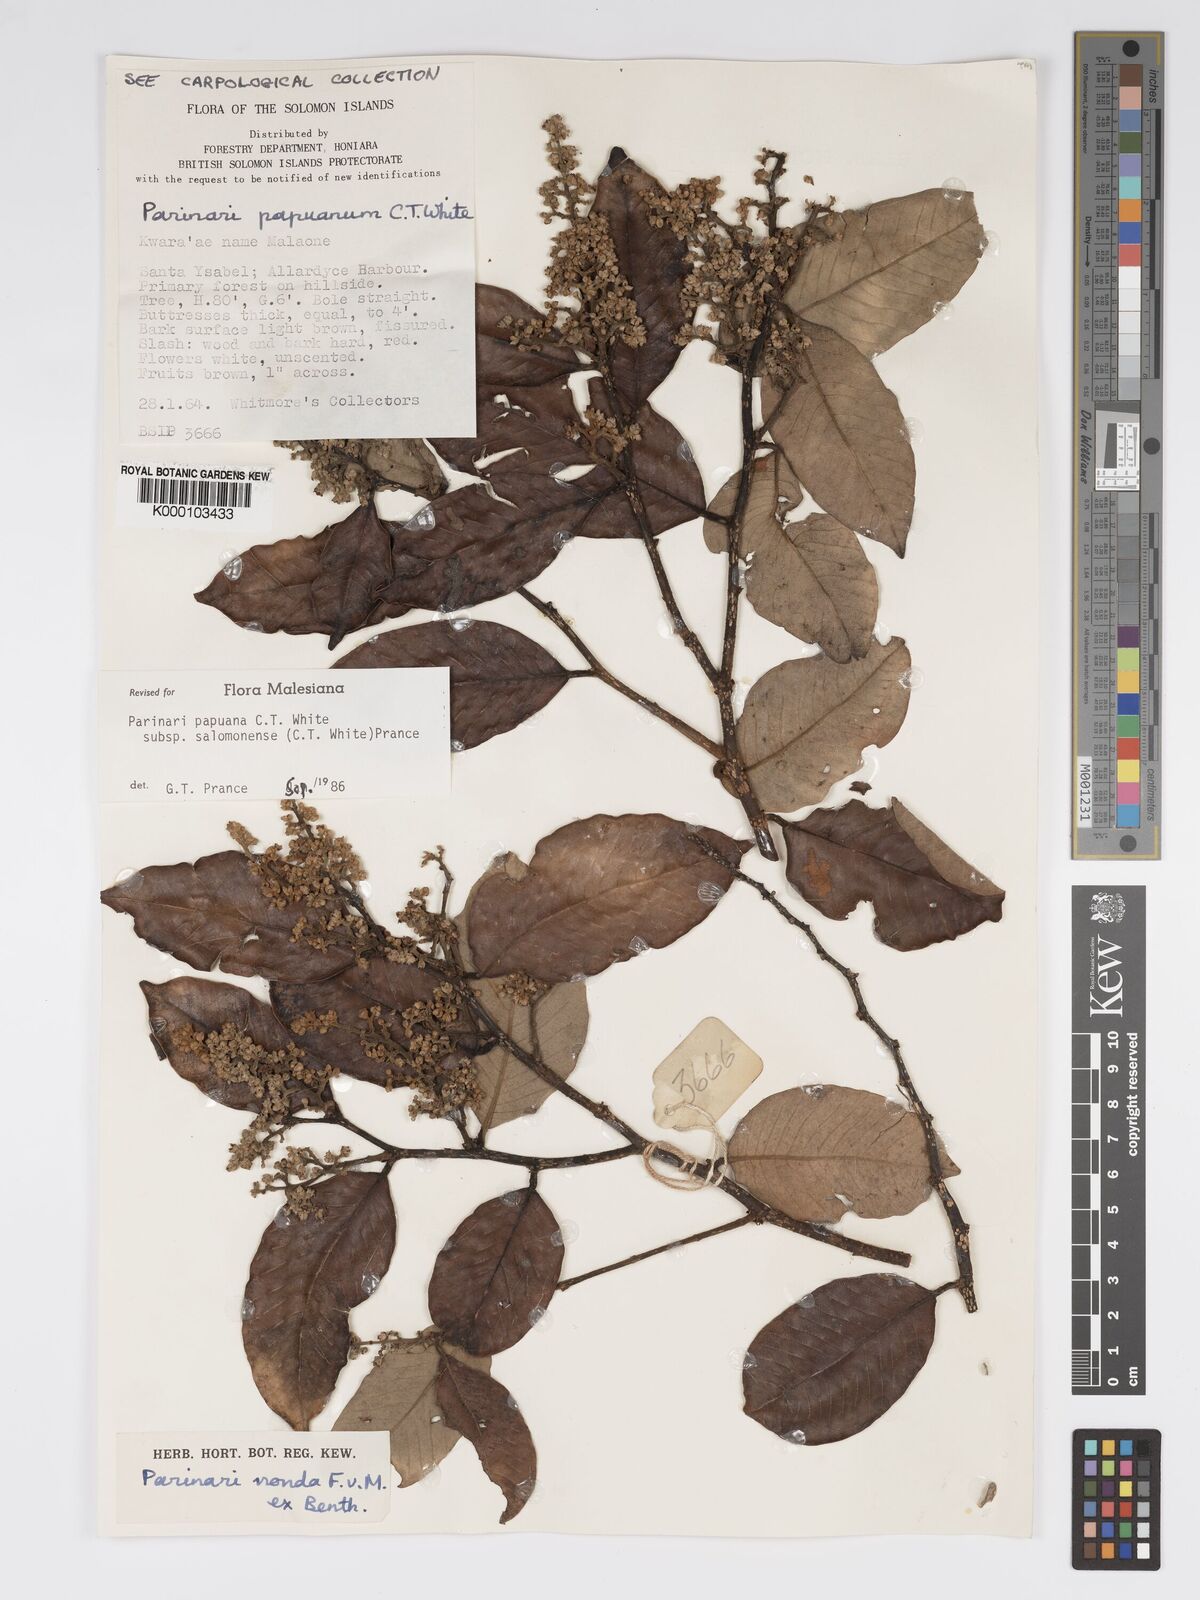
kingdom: Plantae
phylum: Tracheophyta
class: Magnoliopsida
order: Malpighiales
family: Chrysobalanaceae
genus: Parinari
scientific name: Parinari papuana
